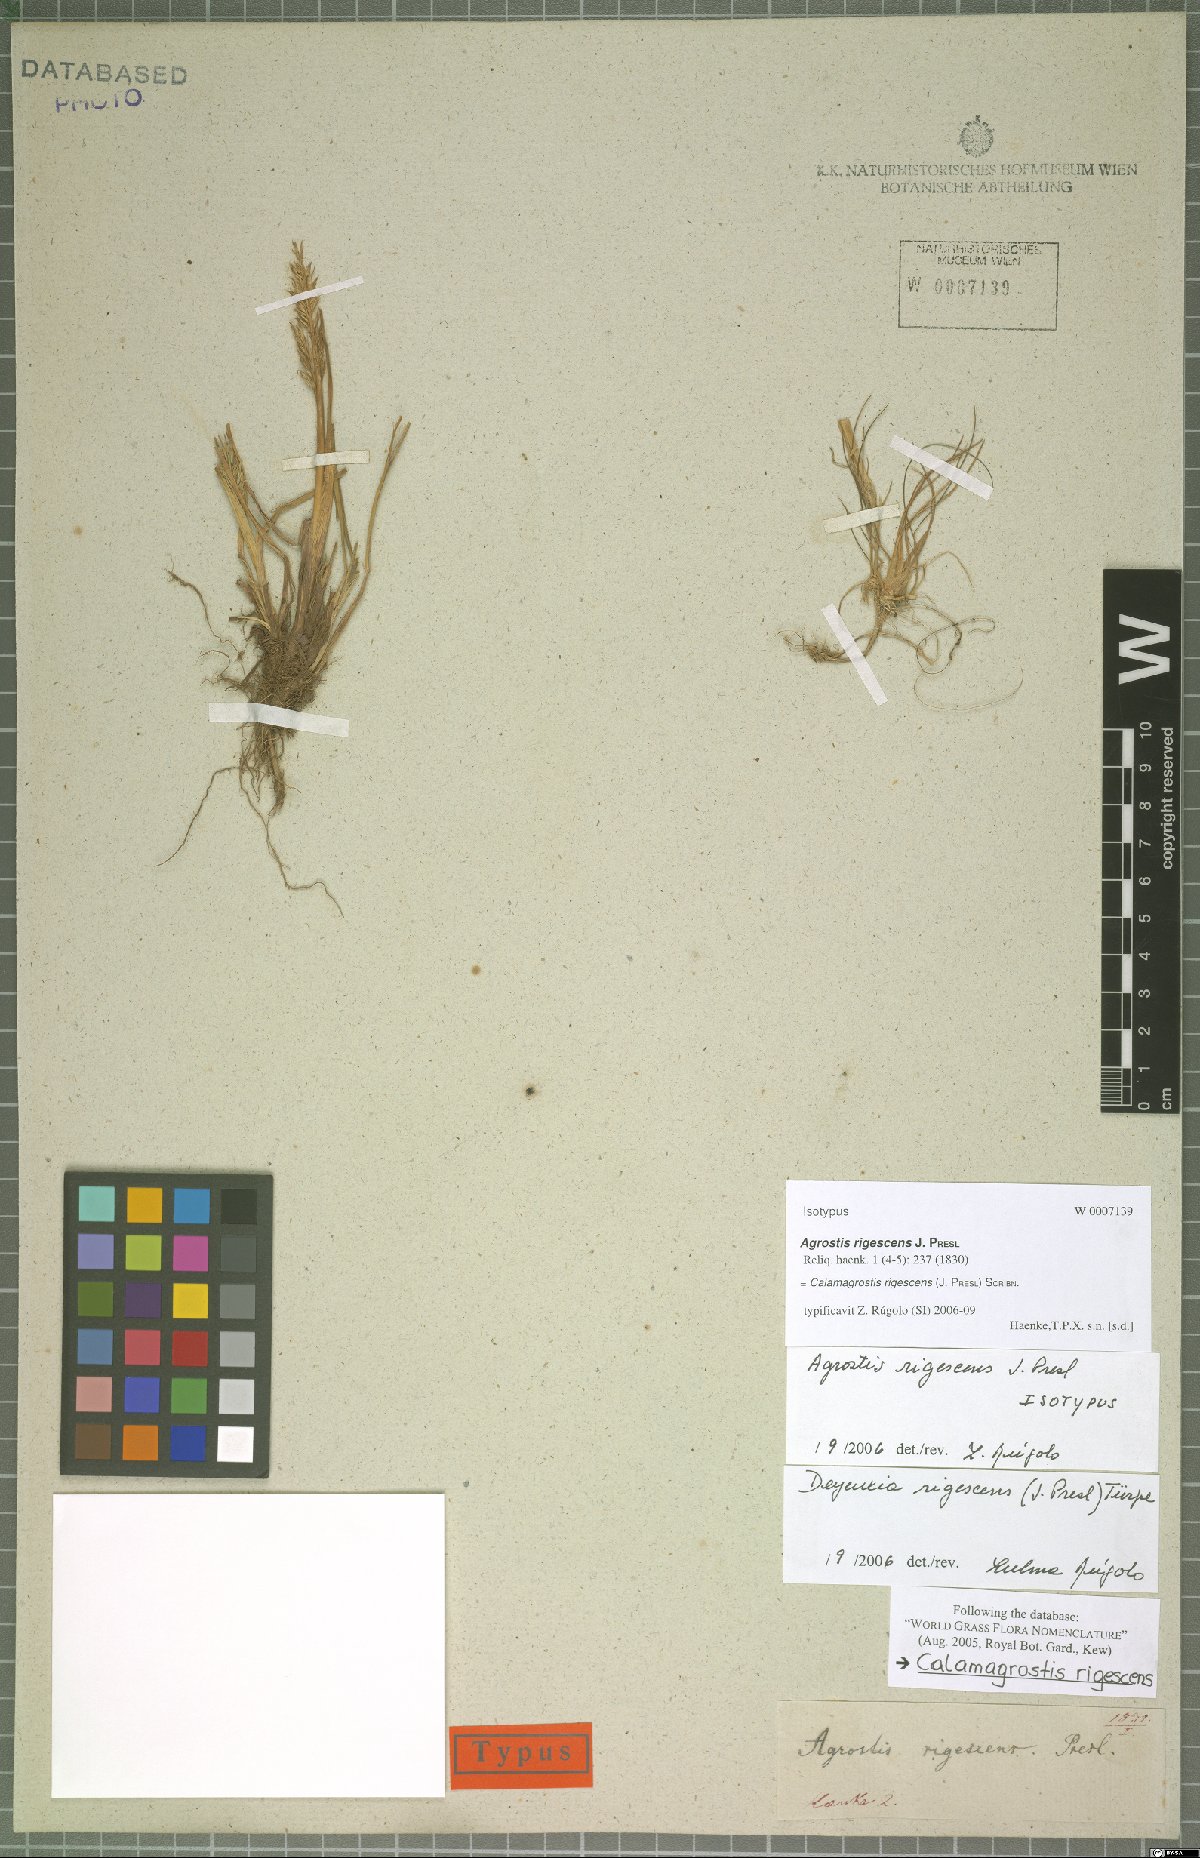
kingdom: Plantae
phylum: Tracheophyta
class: Liliopsida
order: Poales
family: Poaceae
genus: Cinnagrostis
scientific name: Cinnagrostis rigescens
